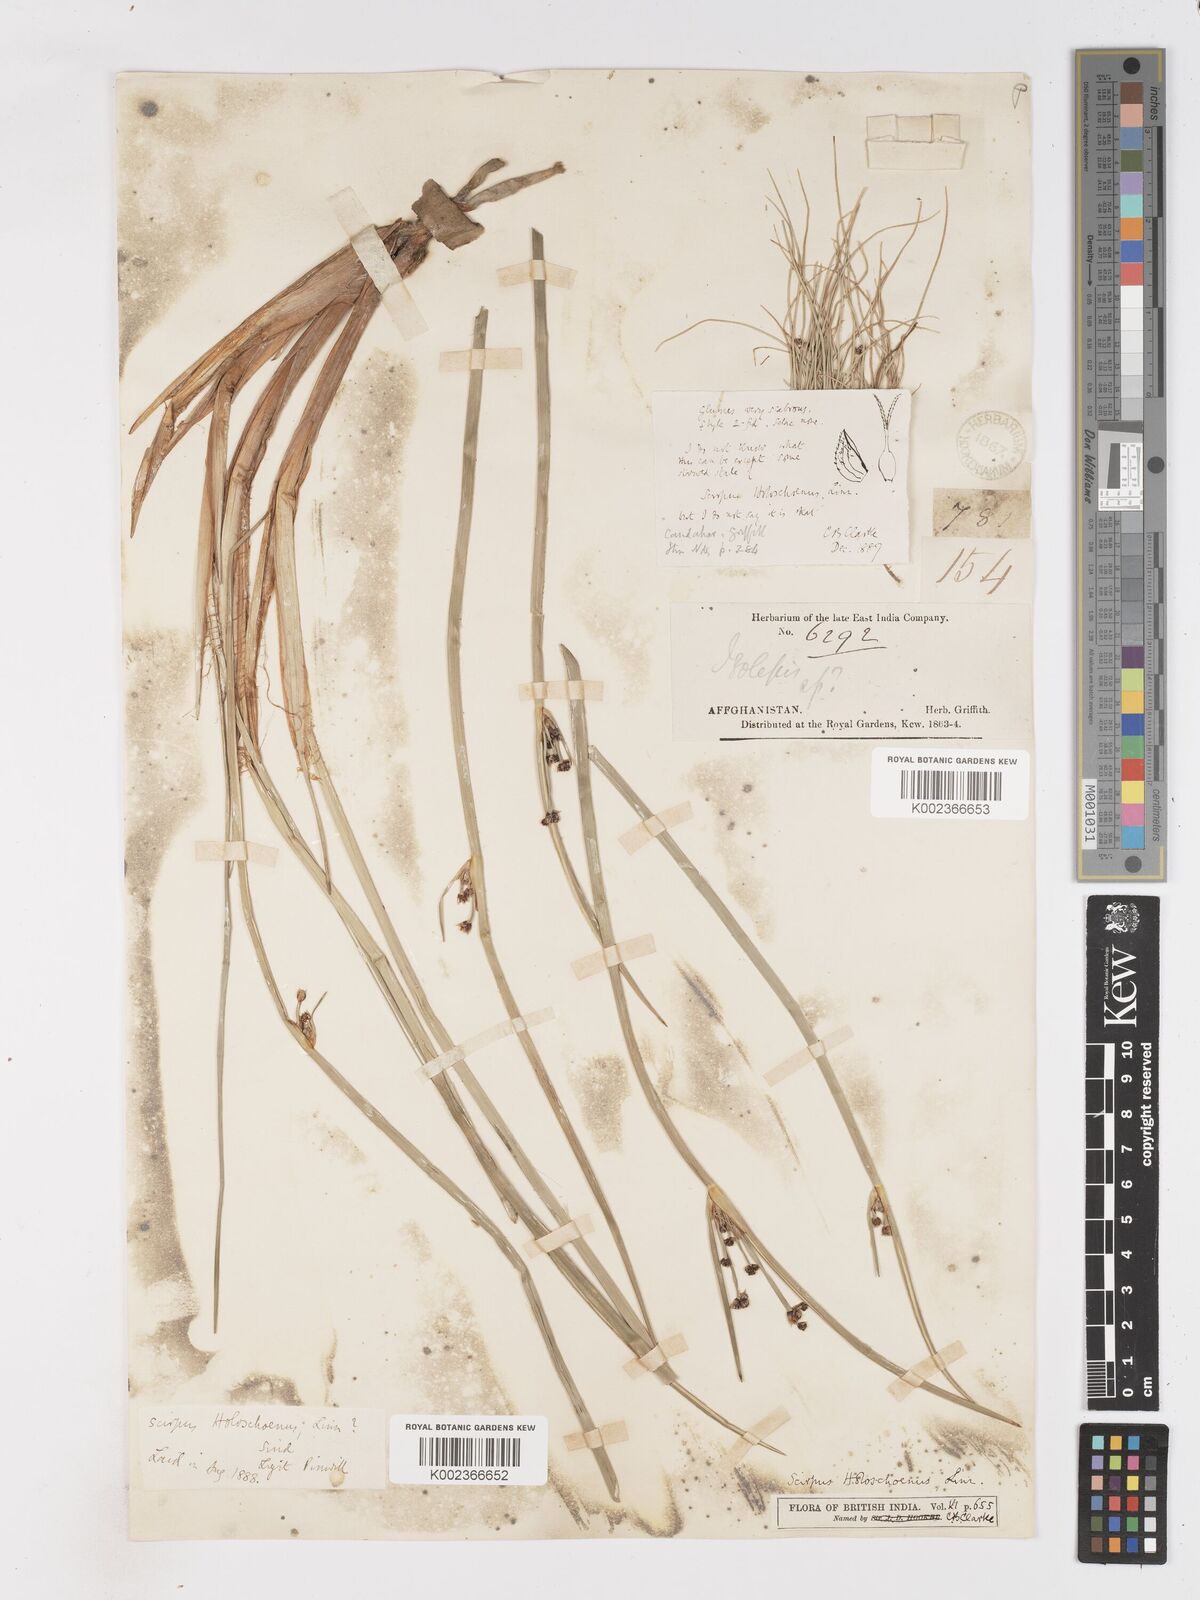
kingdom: Plantae
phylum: Tracheophyta
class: Liliopsida
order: Poales
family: Cyperaceae
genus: Scirpoides
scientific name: Scirpoides holoschoenus
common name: Round-headed club-rush
